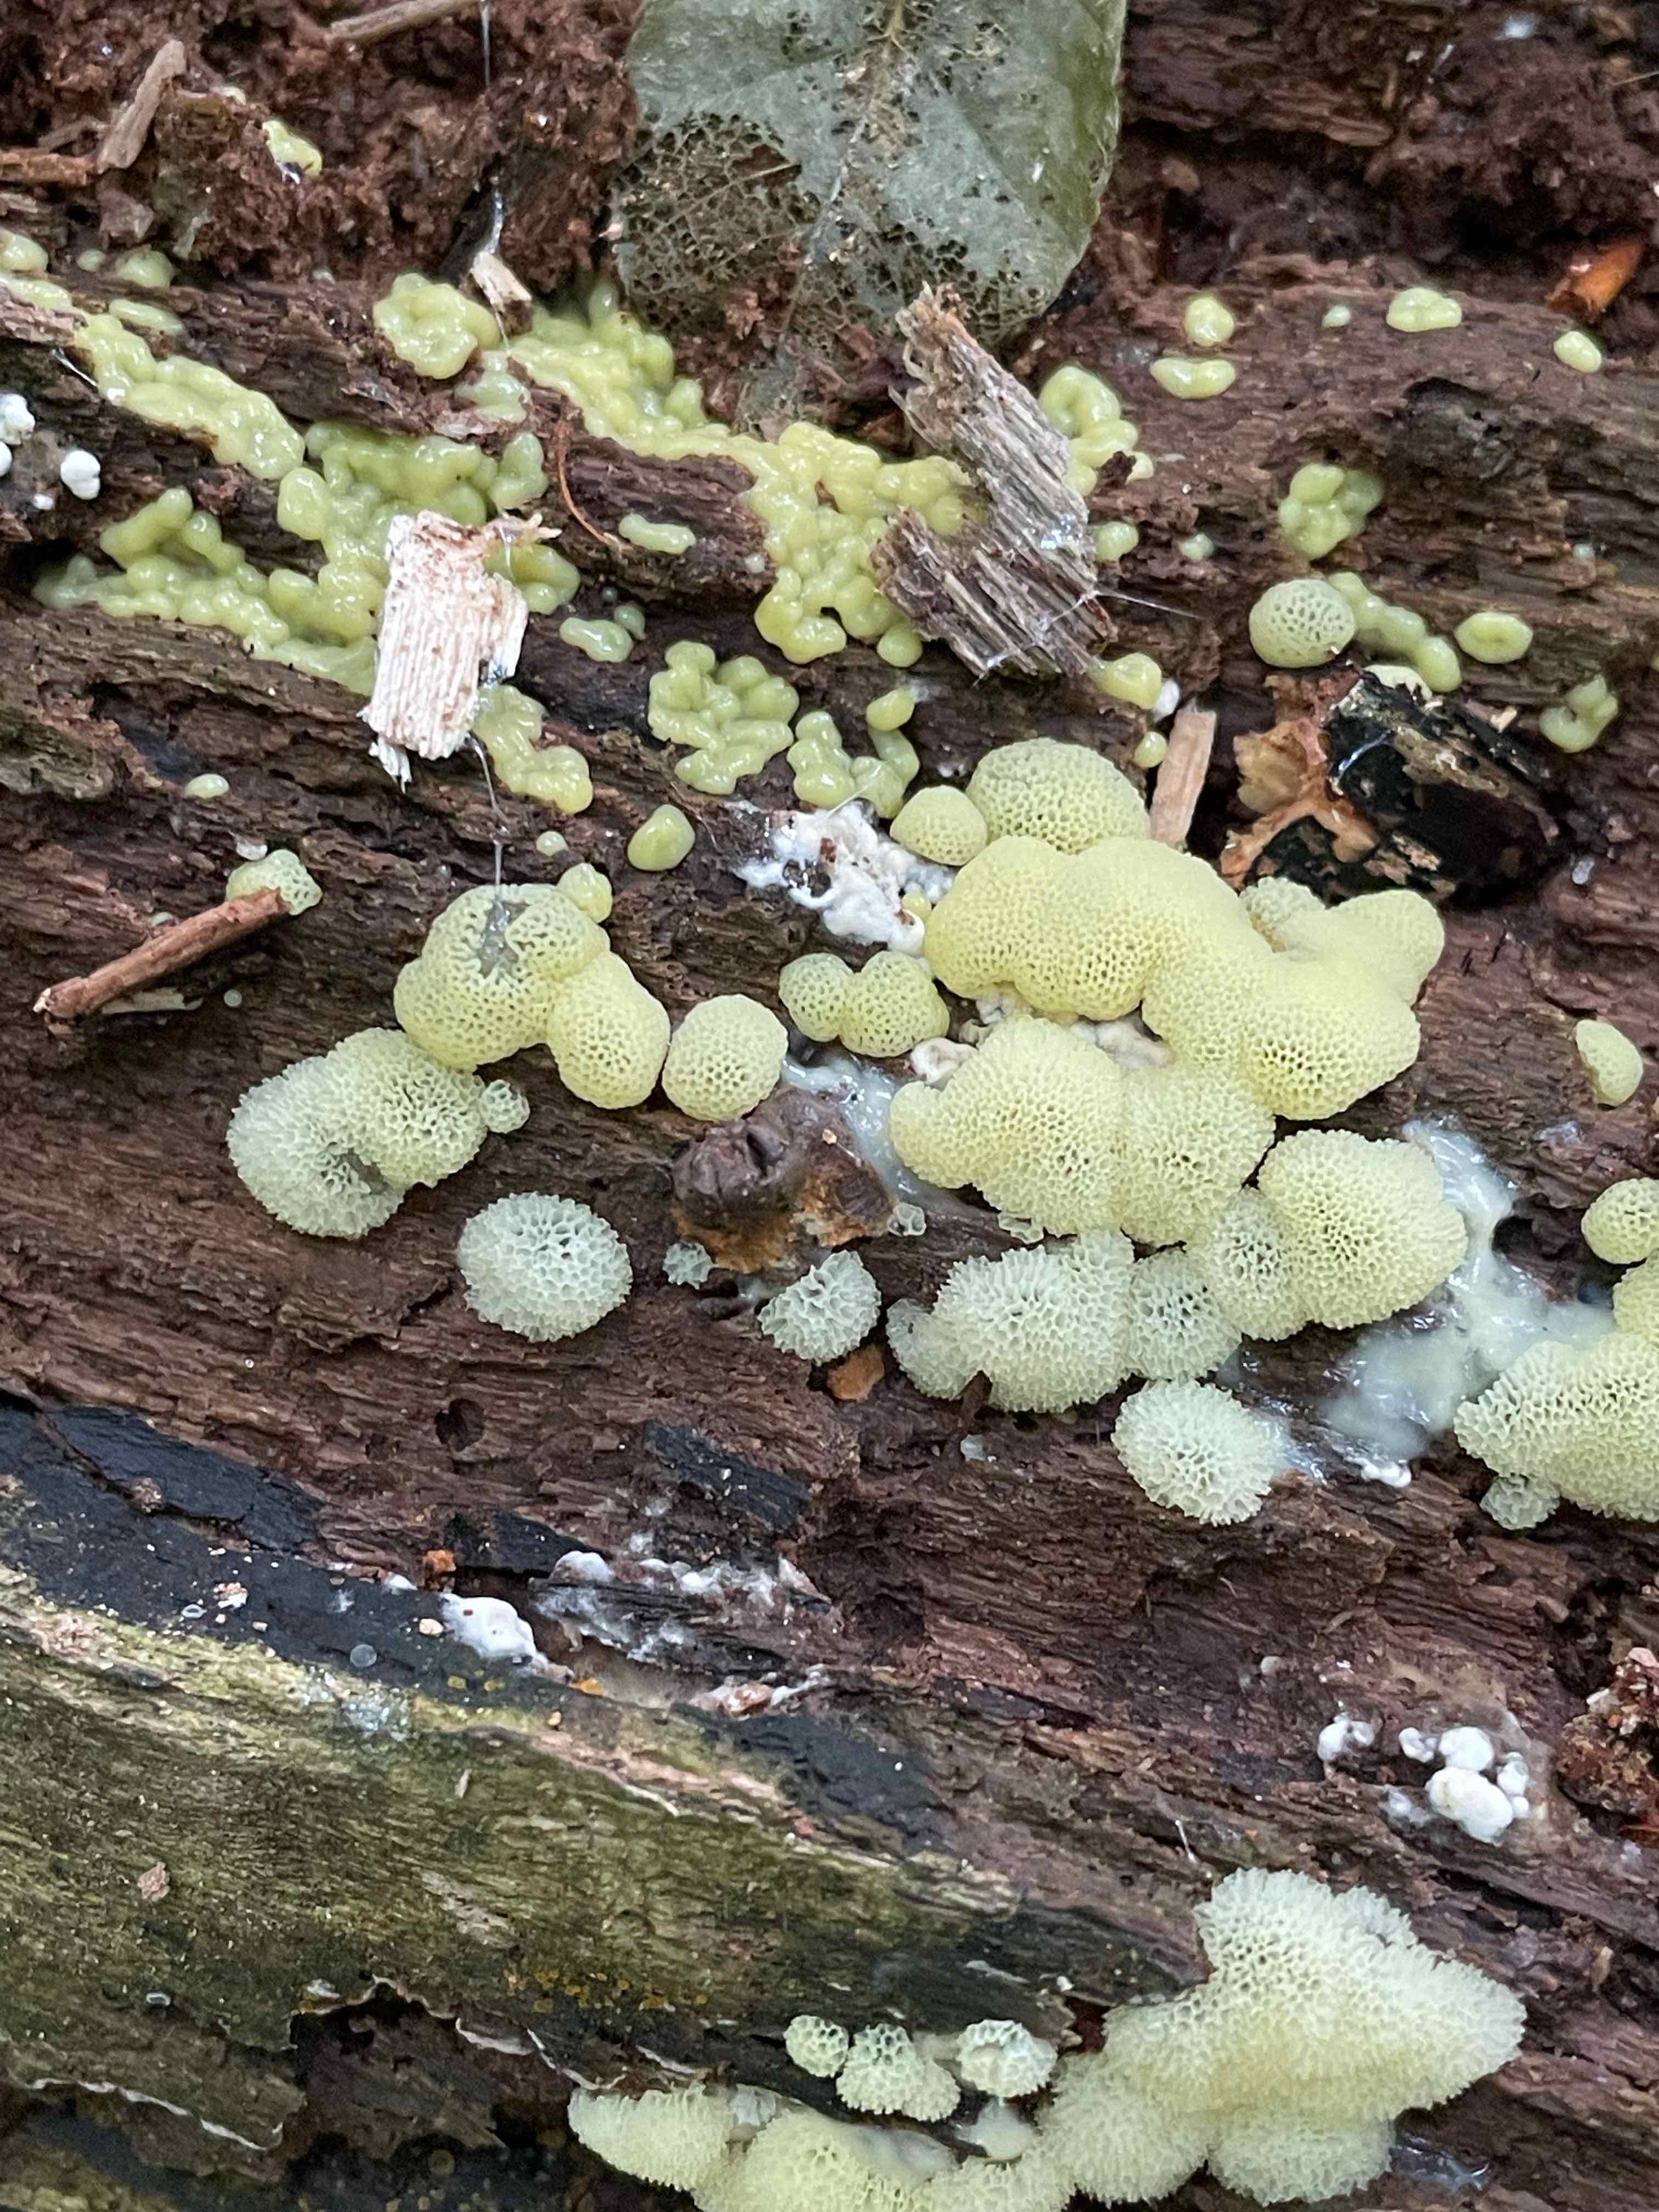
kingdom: Protozoa
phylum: Mycetozoa
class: Protosteliomycetes
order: Ceratiomyxales
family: Ceratiomyxaceae
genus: Ceratiomyxa
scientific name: Ceratiomyxa fruticulosa
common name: Honeycomb coral slime mold
